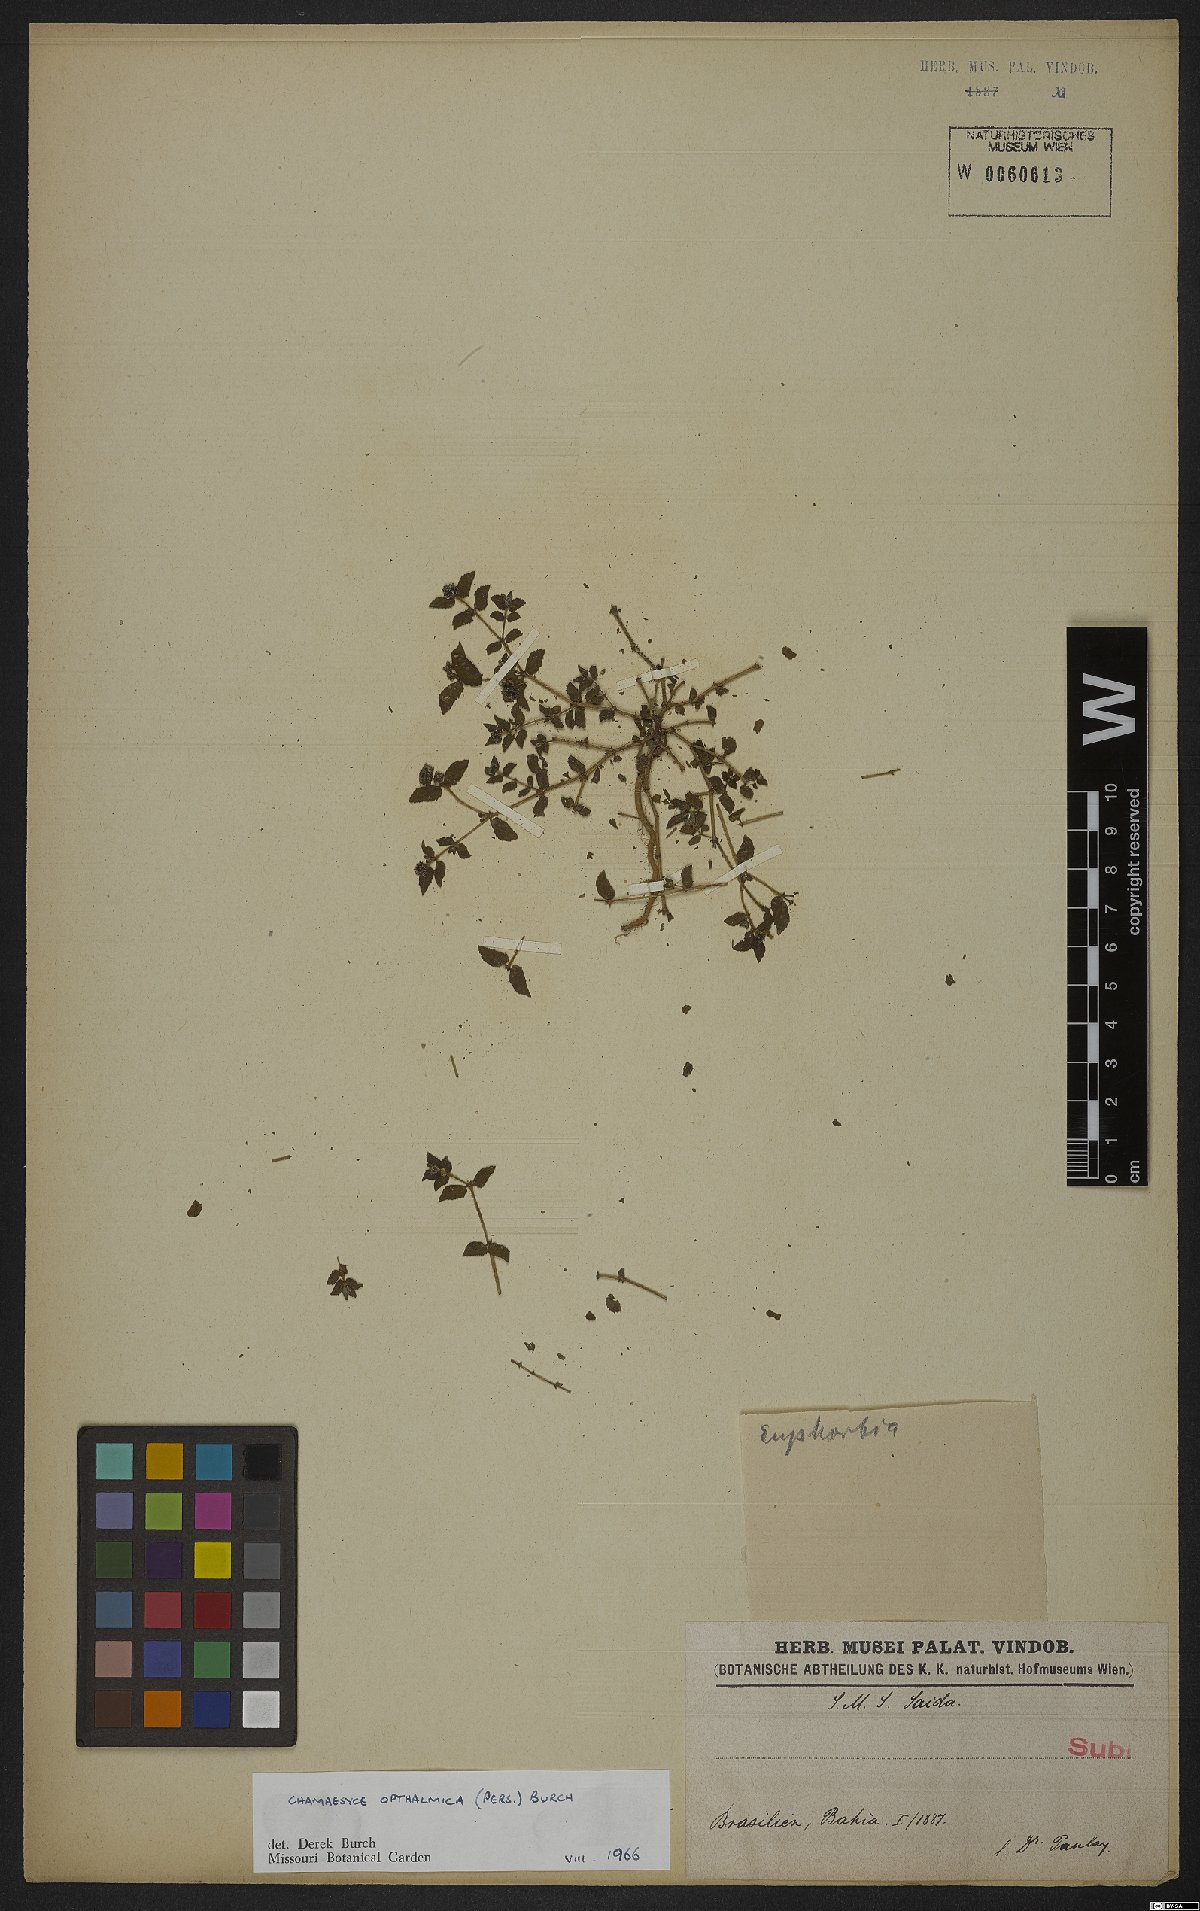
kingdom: Plantae
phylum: Tracheophyta
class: Magnoliopsida
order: Malpighiales
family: Euphorbiaceae
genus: Euphorbia
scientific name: Euphorbia ophthalmica
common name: Florida hammock sandmat
